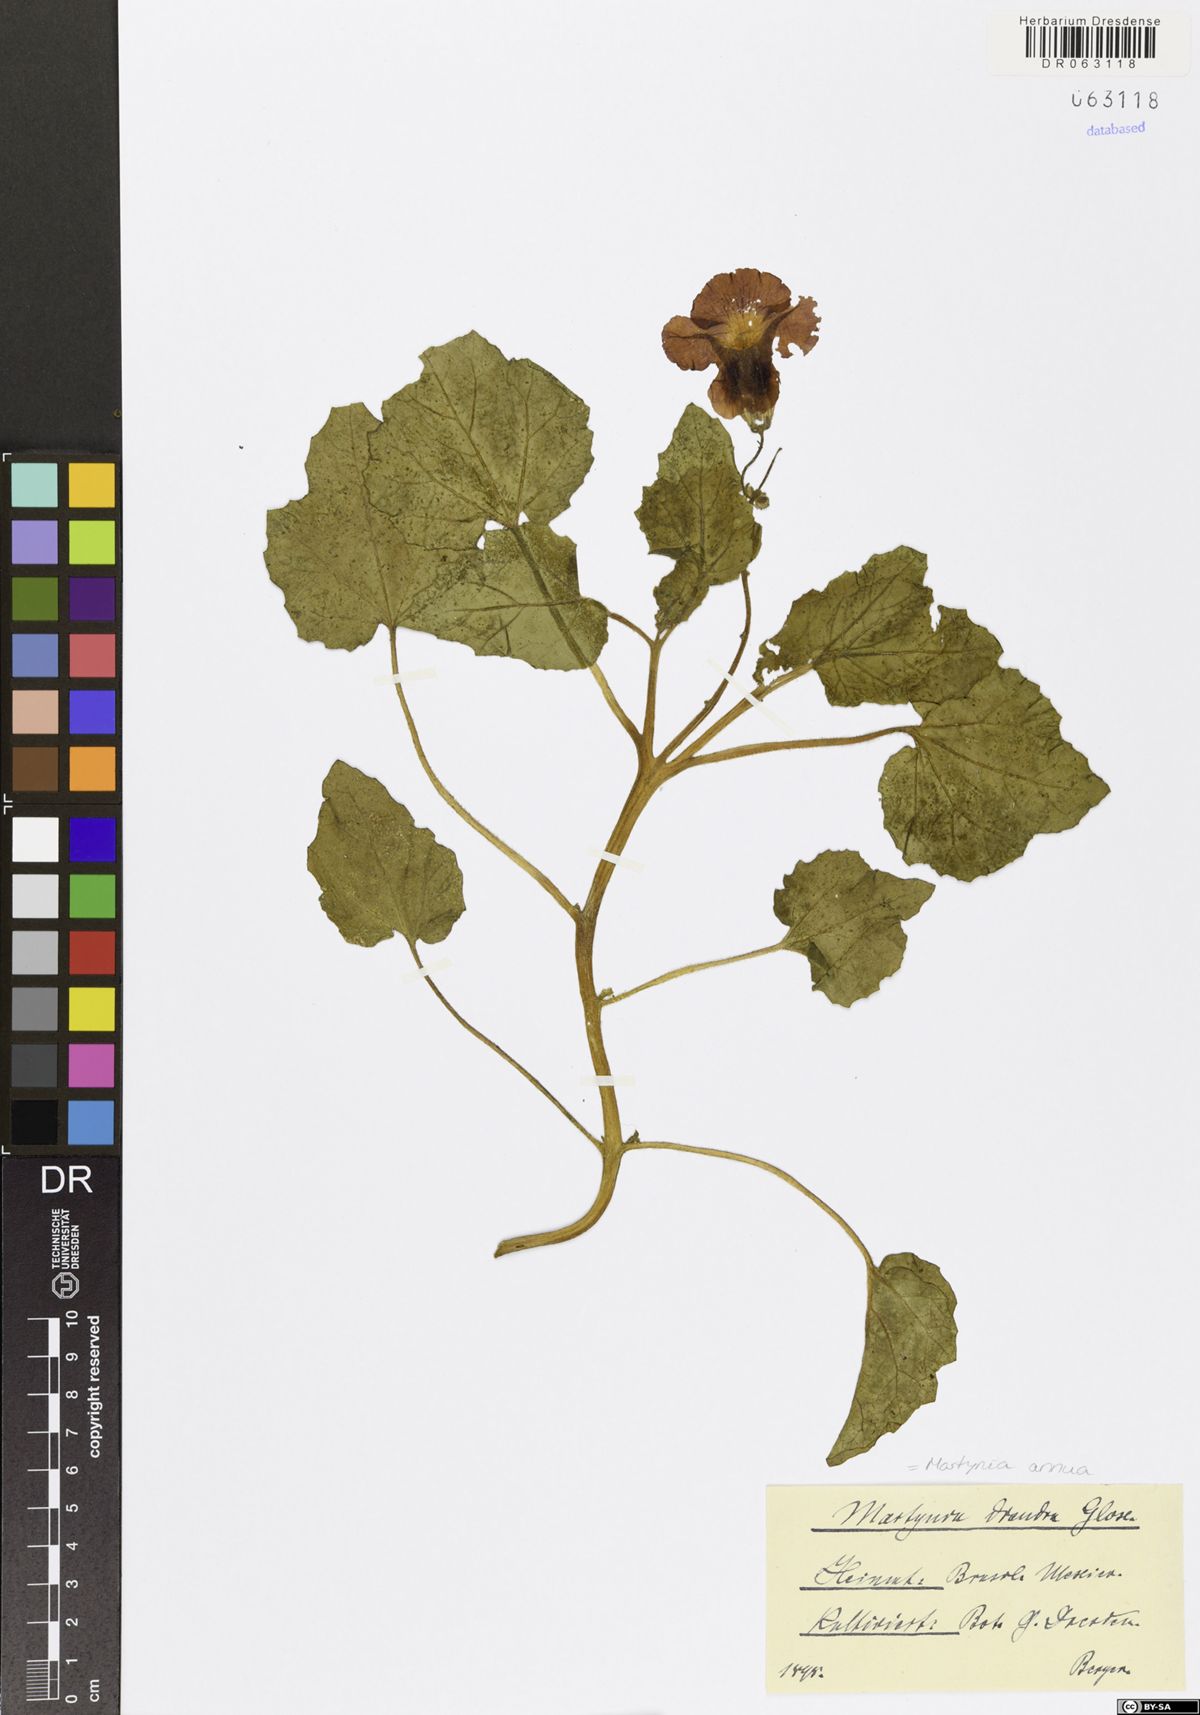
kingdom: Plantae
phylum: Tracheophyta
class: Magnoliopsida
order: Lamiales
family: Martyniaceae
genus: Martynia
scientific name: Martynia annua
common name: Tiger's-claw
